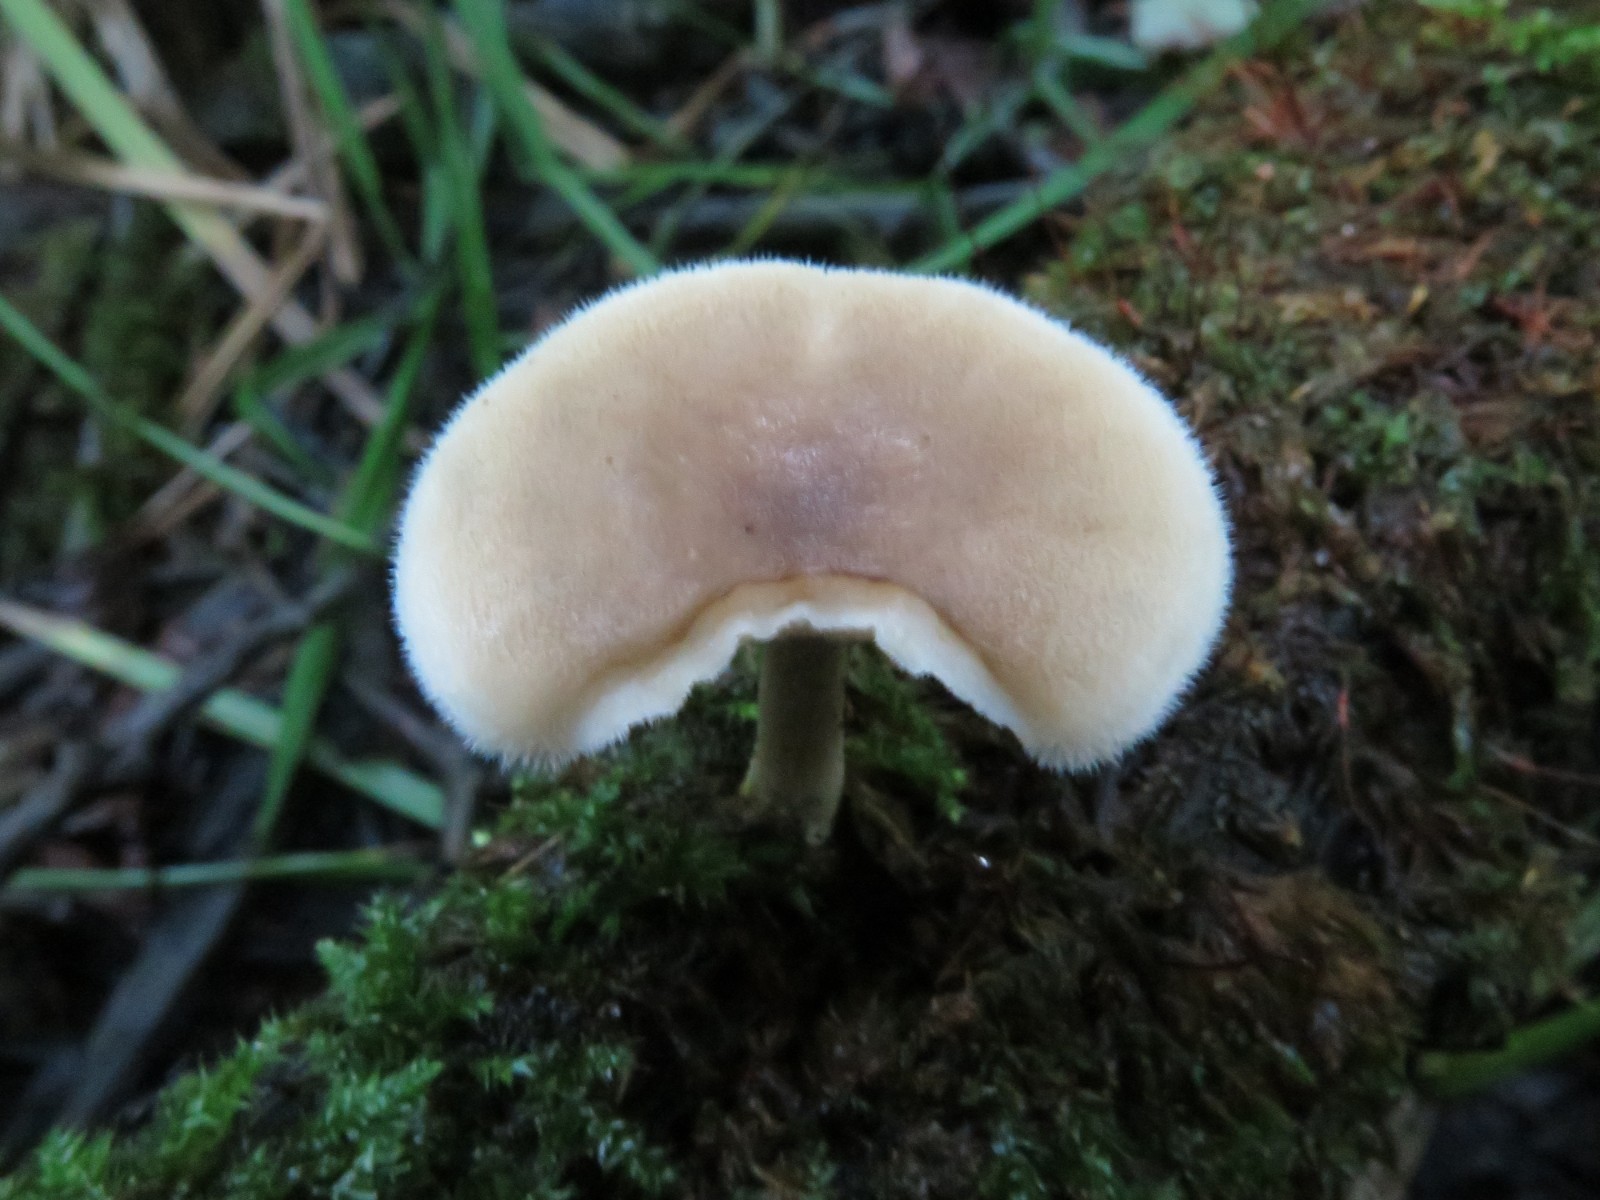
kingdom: Fungi
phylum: Basidiomycota
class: Agaricomycetes
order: Polyporales
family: Polyporaceae
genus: Lentinus
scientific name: Lentinus substrictus
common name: forårs-stilkporesvamp
